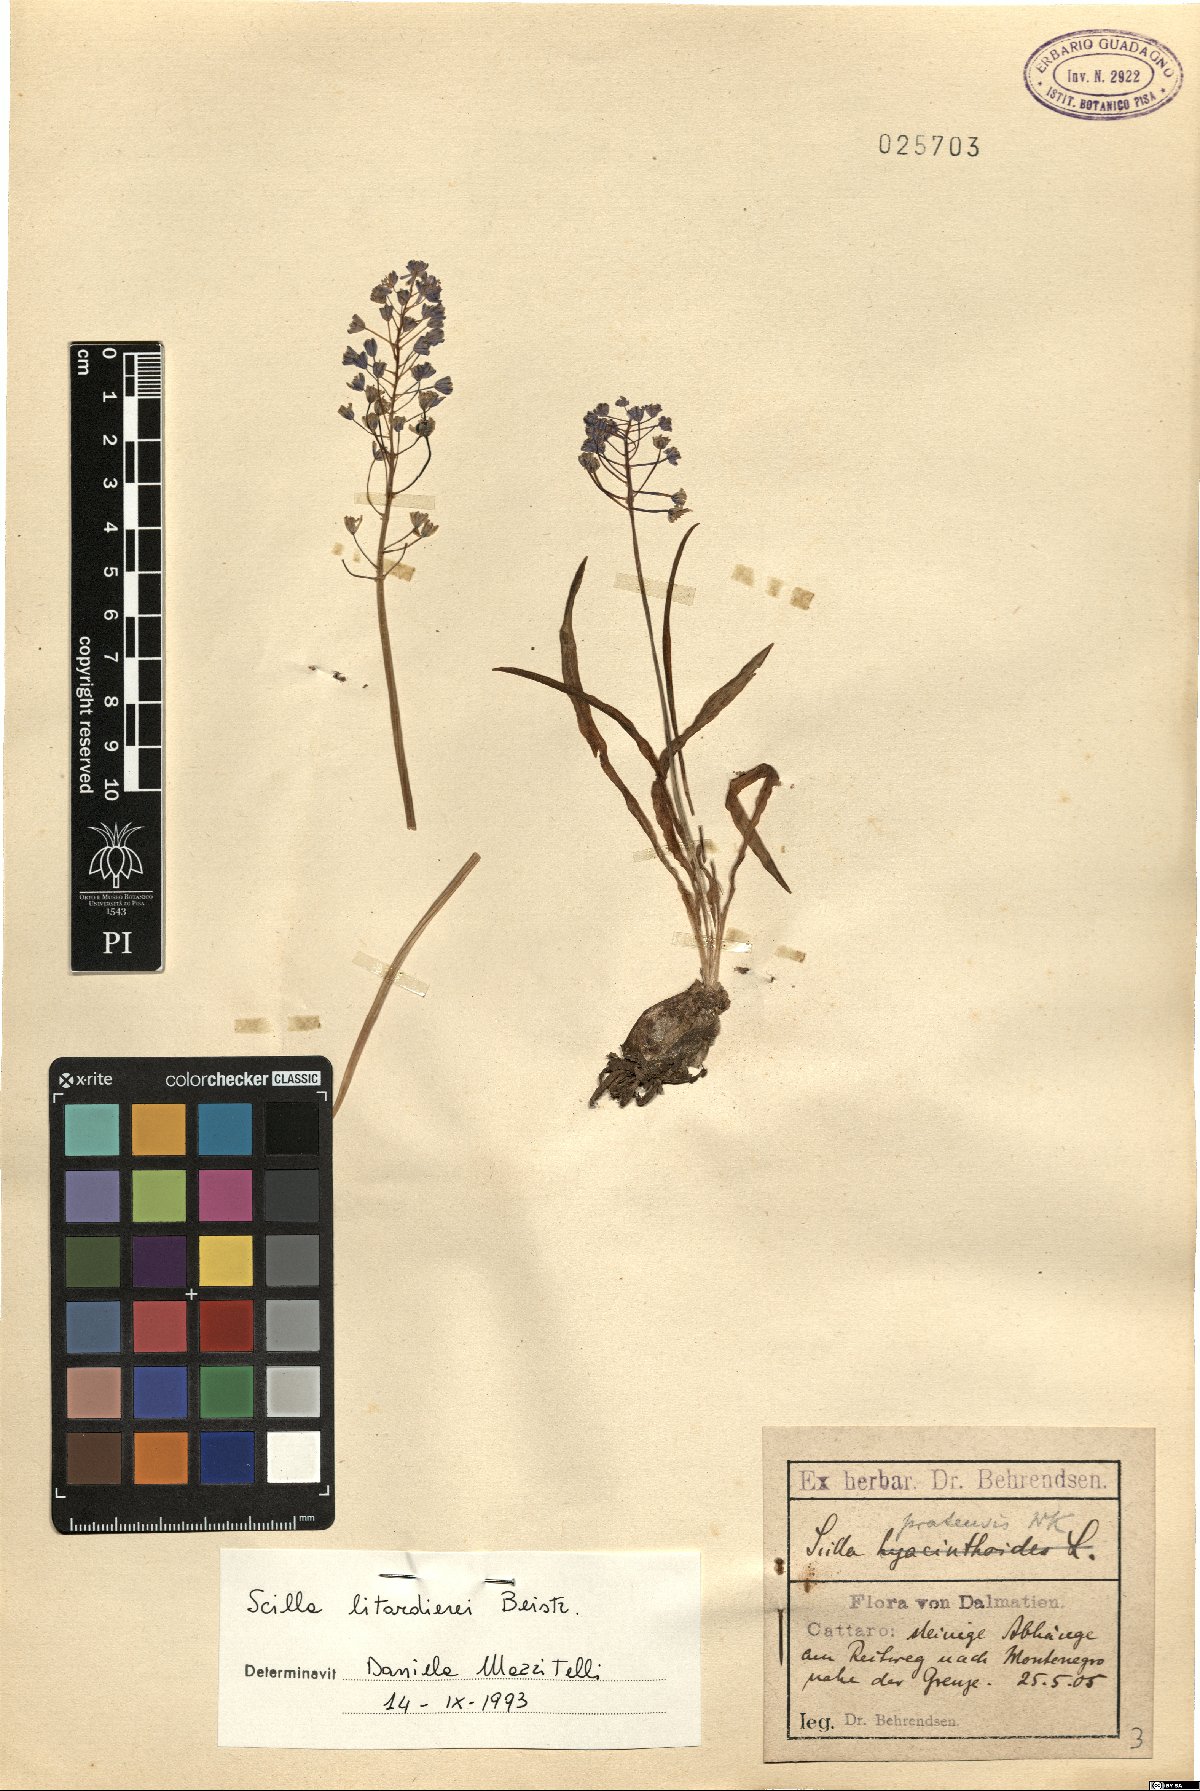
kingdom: Plantae
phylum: Tracheophyta
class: Liliopsida
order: Asparagales
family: Asparagaceae
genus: Scilla
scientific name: Scilla litardierei
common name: Amethyst meadow squill
